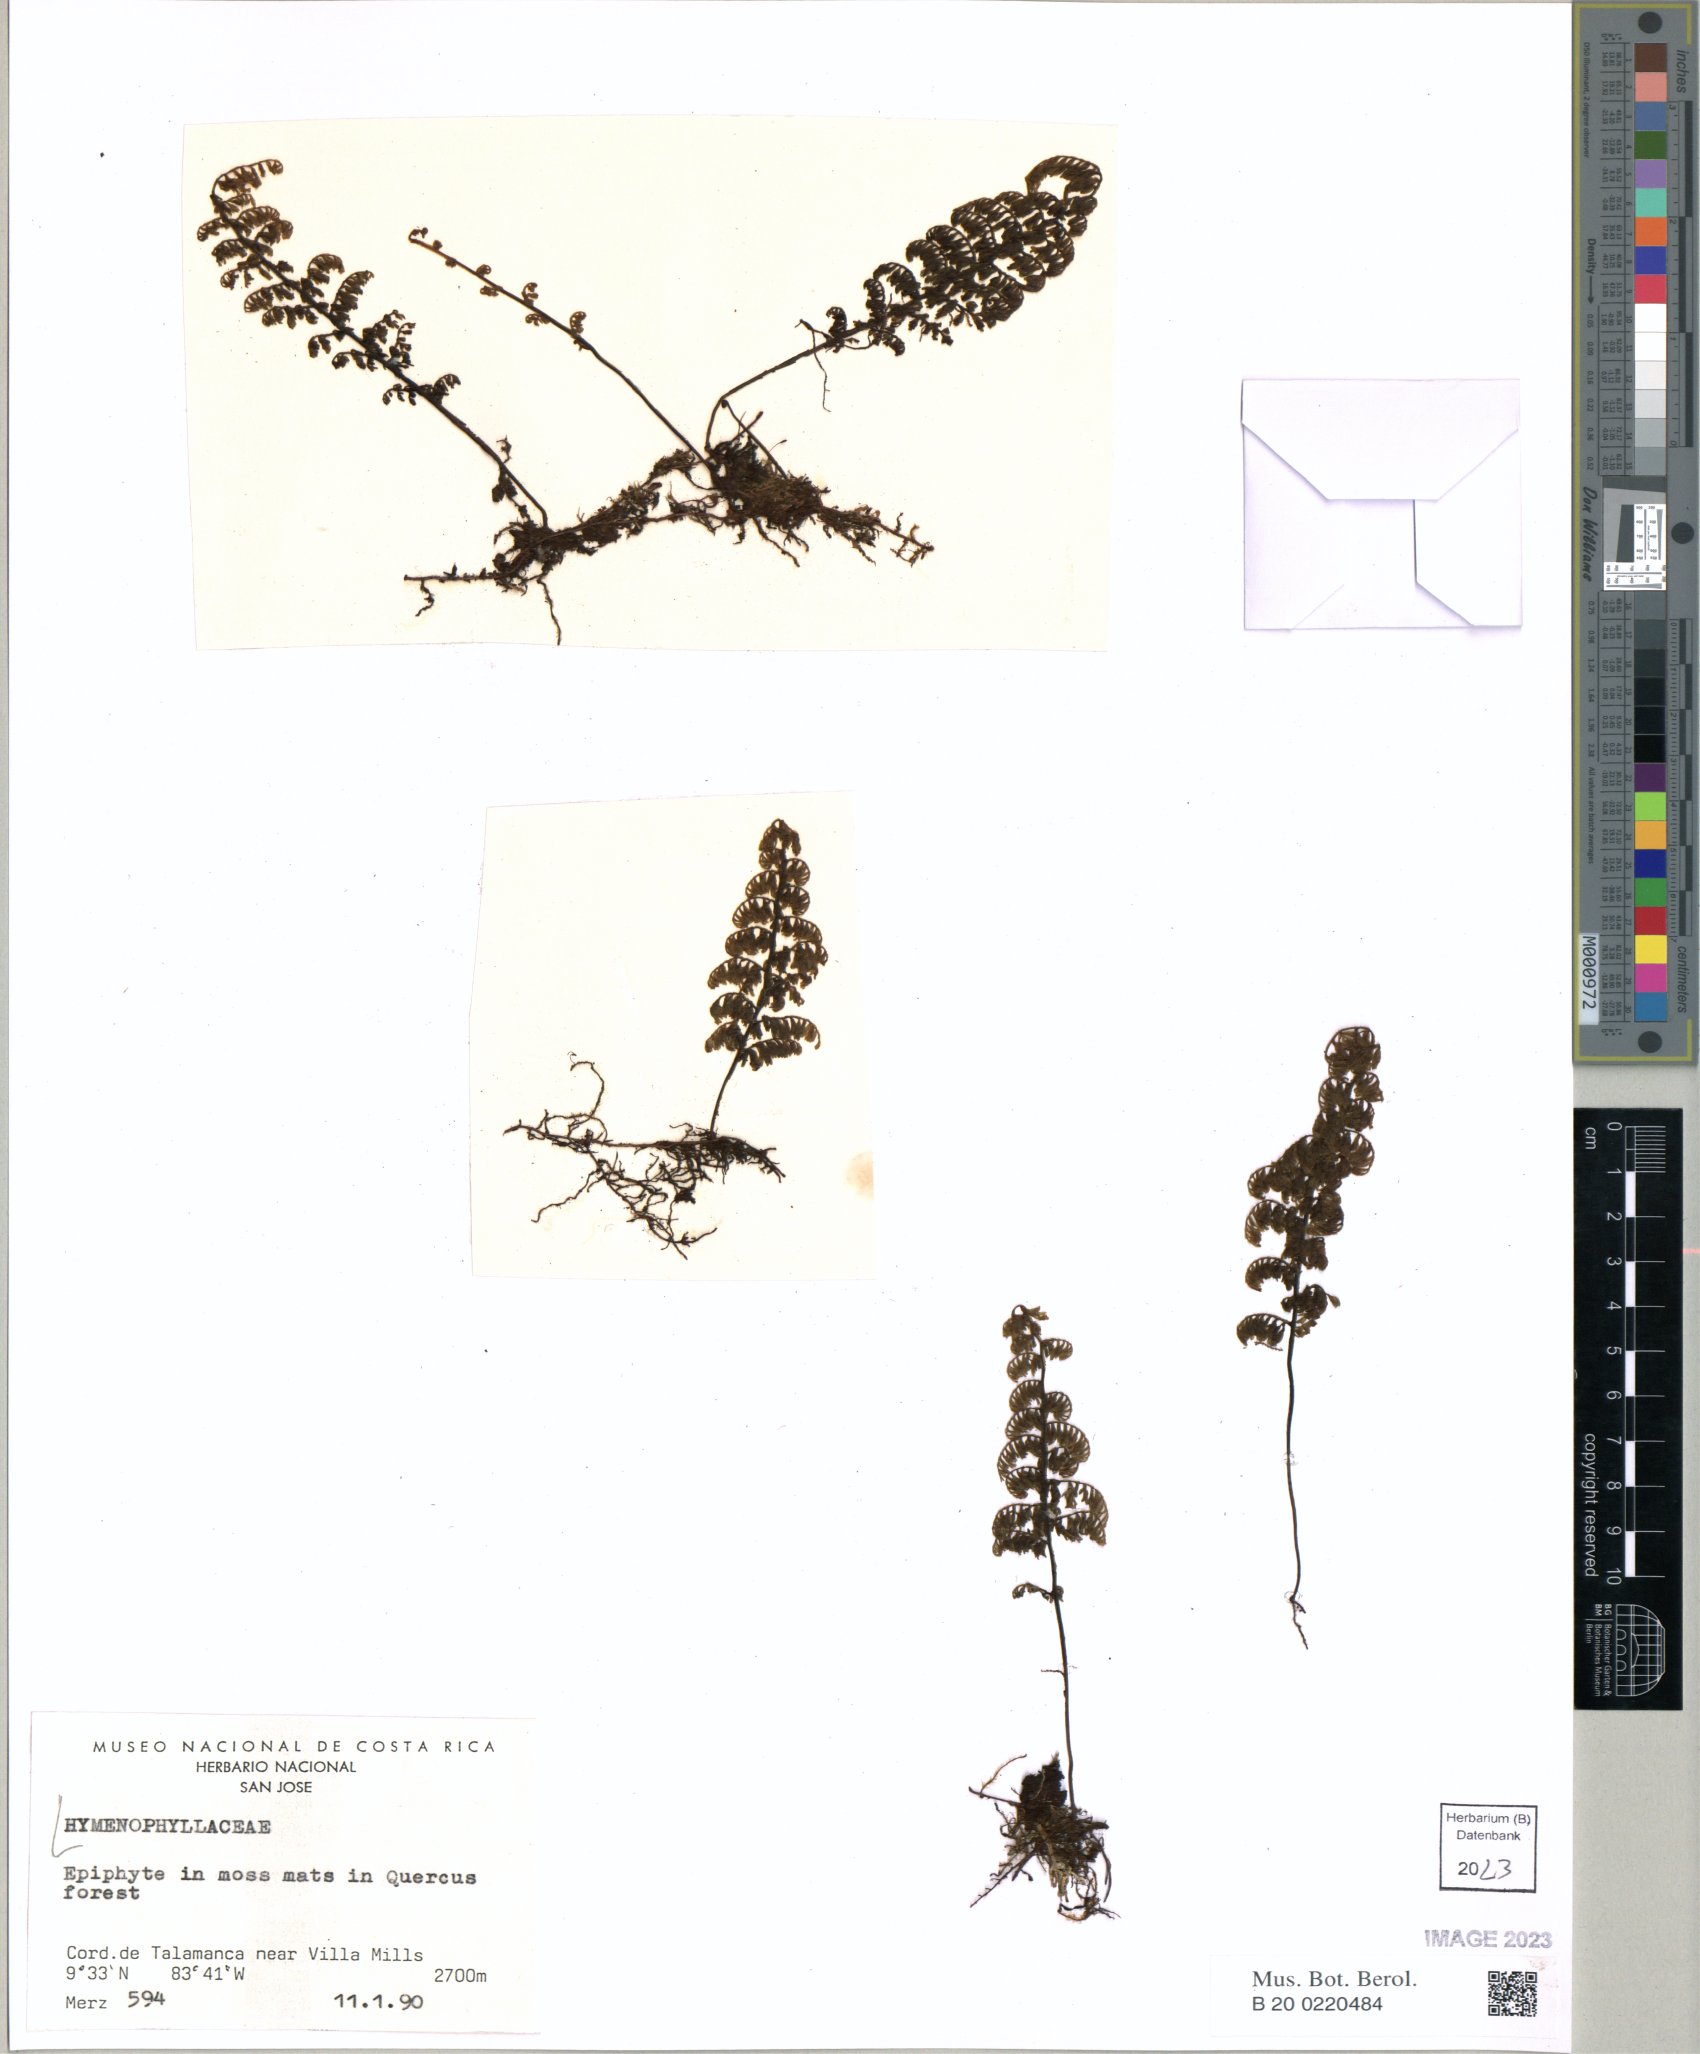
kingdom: Plantae
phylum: Tracheophyta
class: Polypodiopsida
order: Hymenophyllales
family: Hymenophyllaceae
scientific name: Hymenophyllaceae
